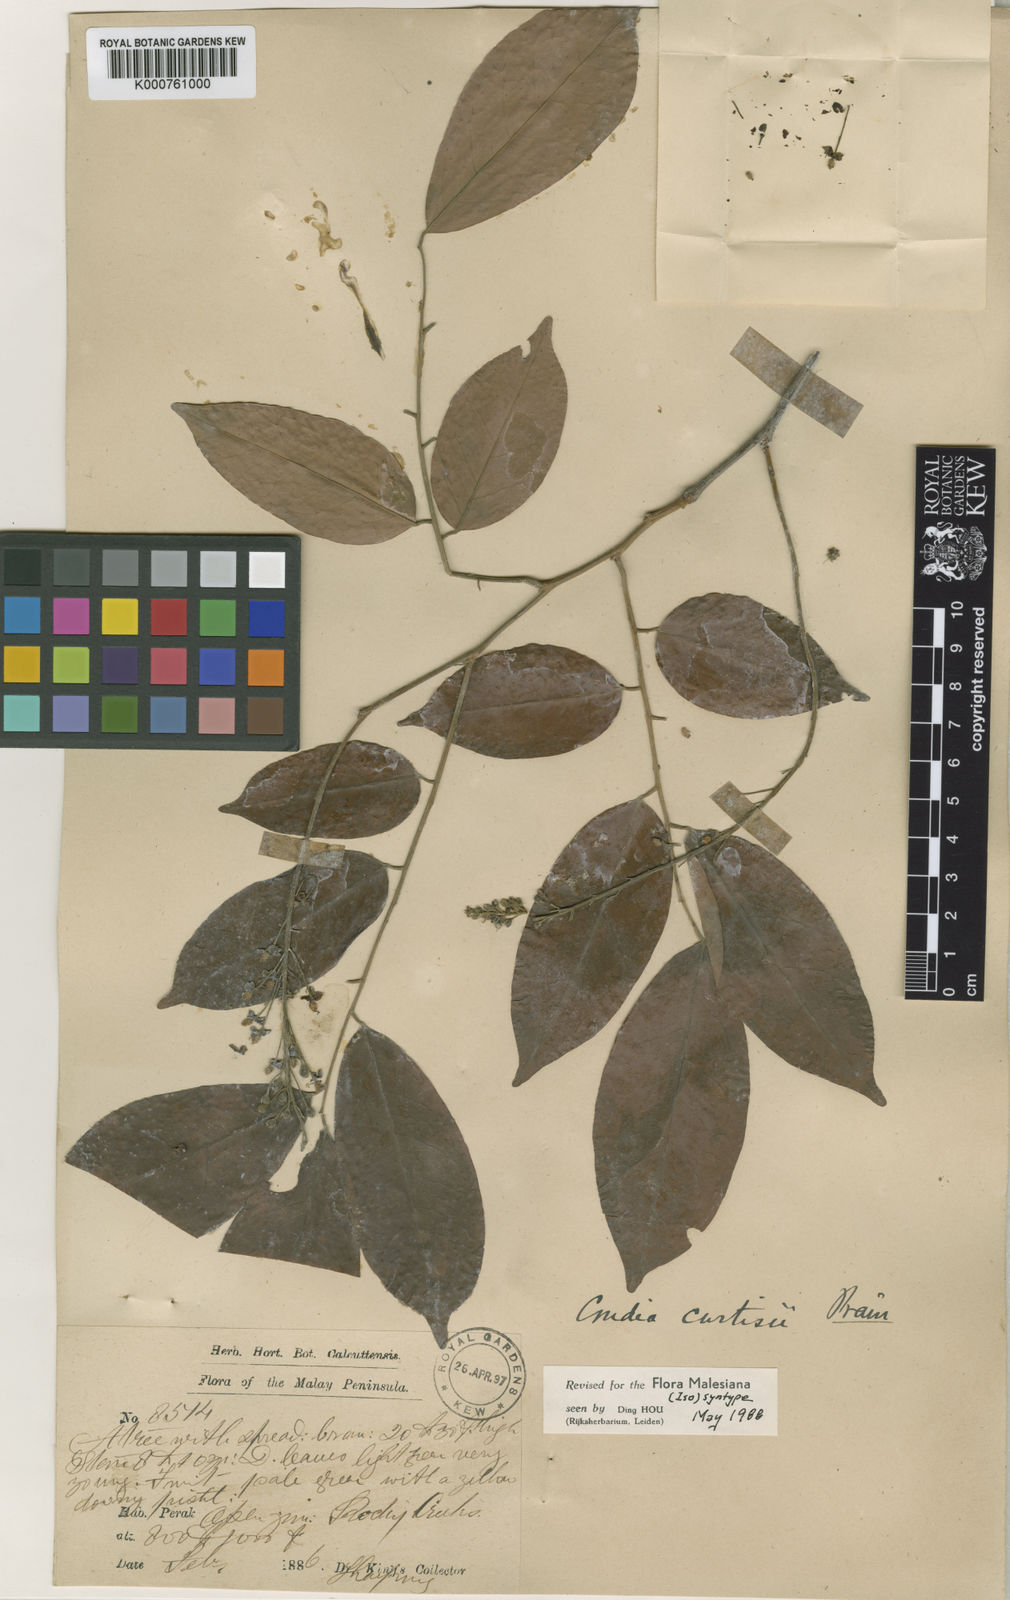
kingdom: Plantae
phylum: Tracheophyta
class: Magnoliopsida
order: Fabales
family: Fabaceae
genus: Crudia
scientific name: Crudia
